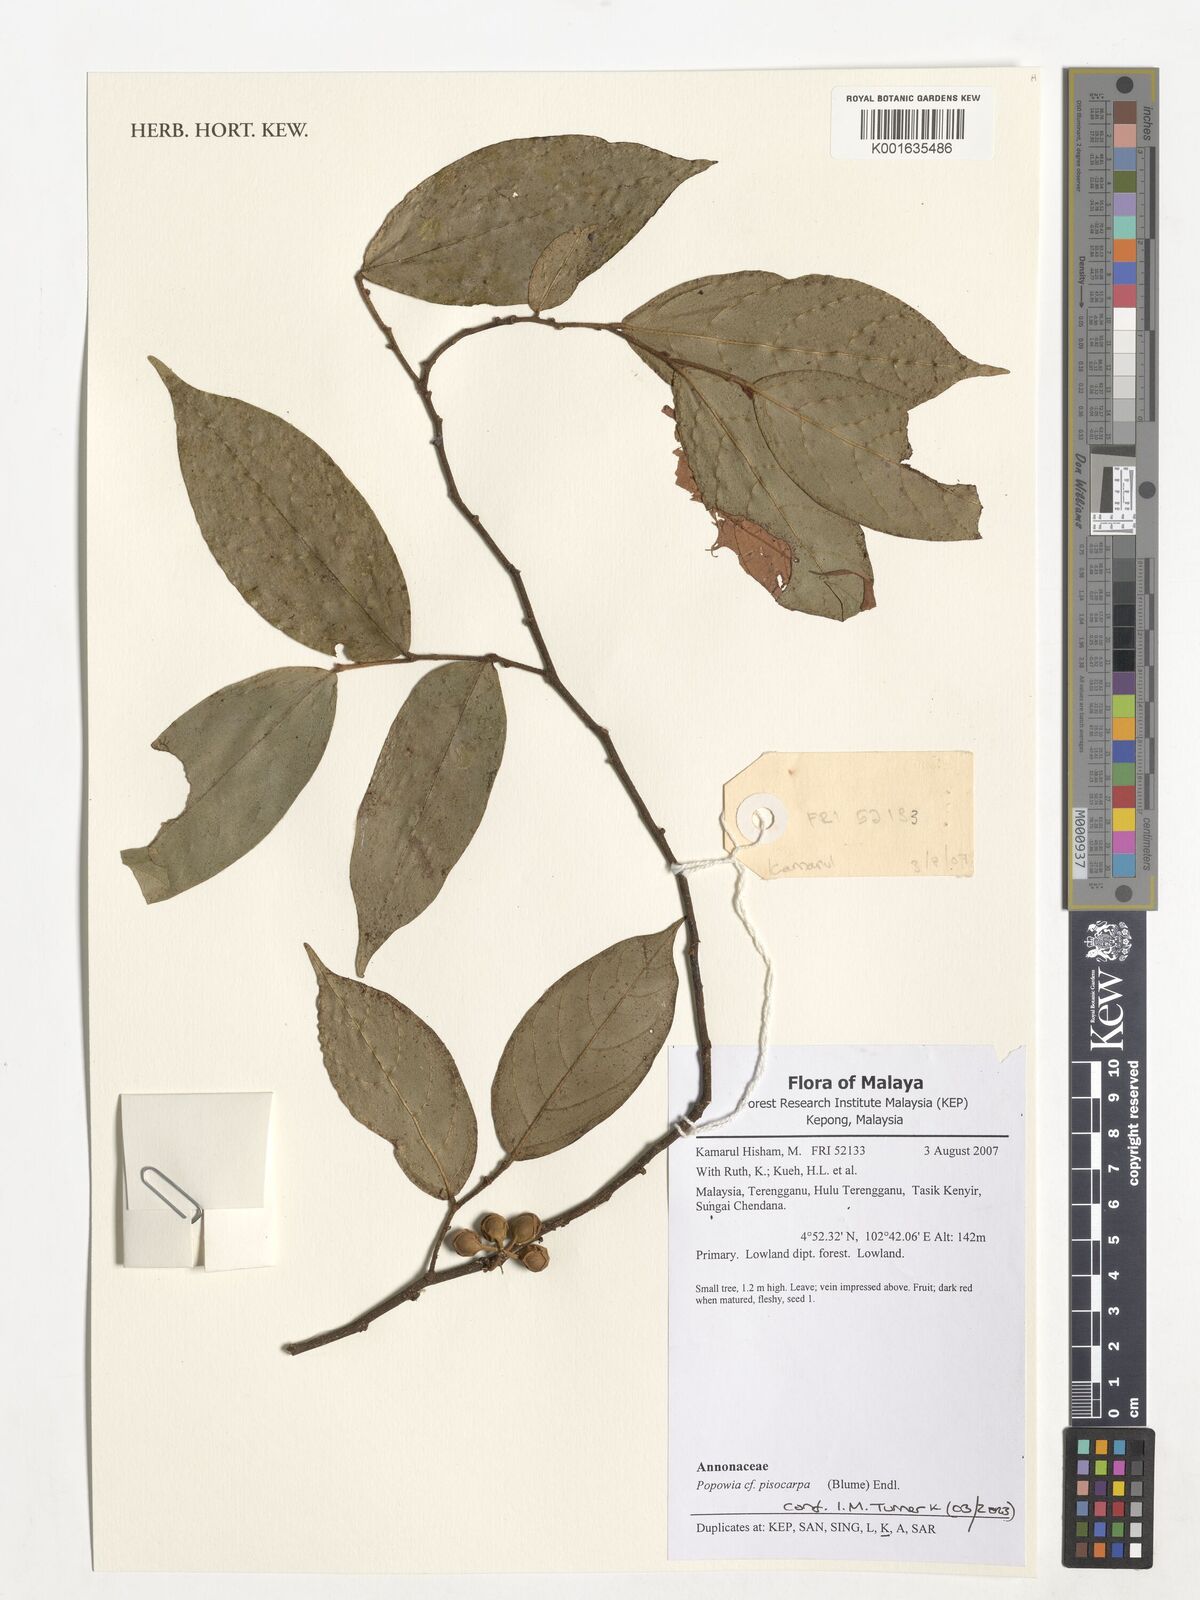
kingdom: Plantae
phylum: Tracheophyta
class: Magnoliopsida
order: Magnoliales
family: Annonaceae
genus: Popowia
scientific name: Popowia pisocarpa
